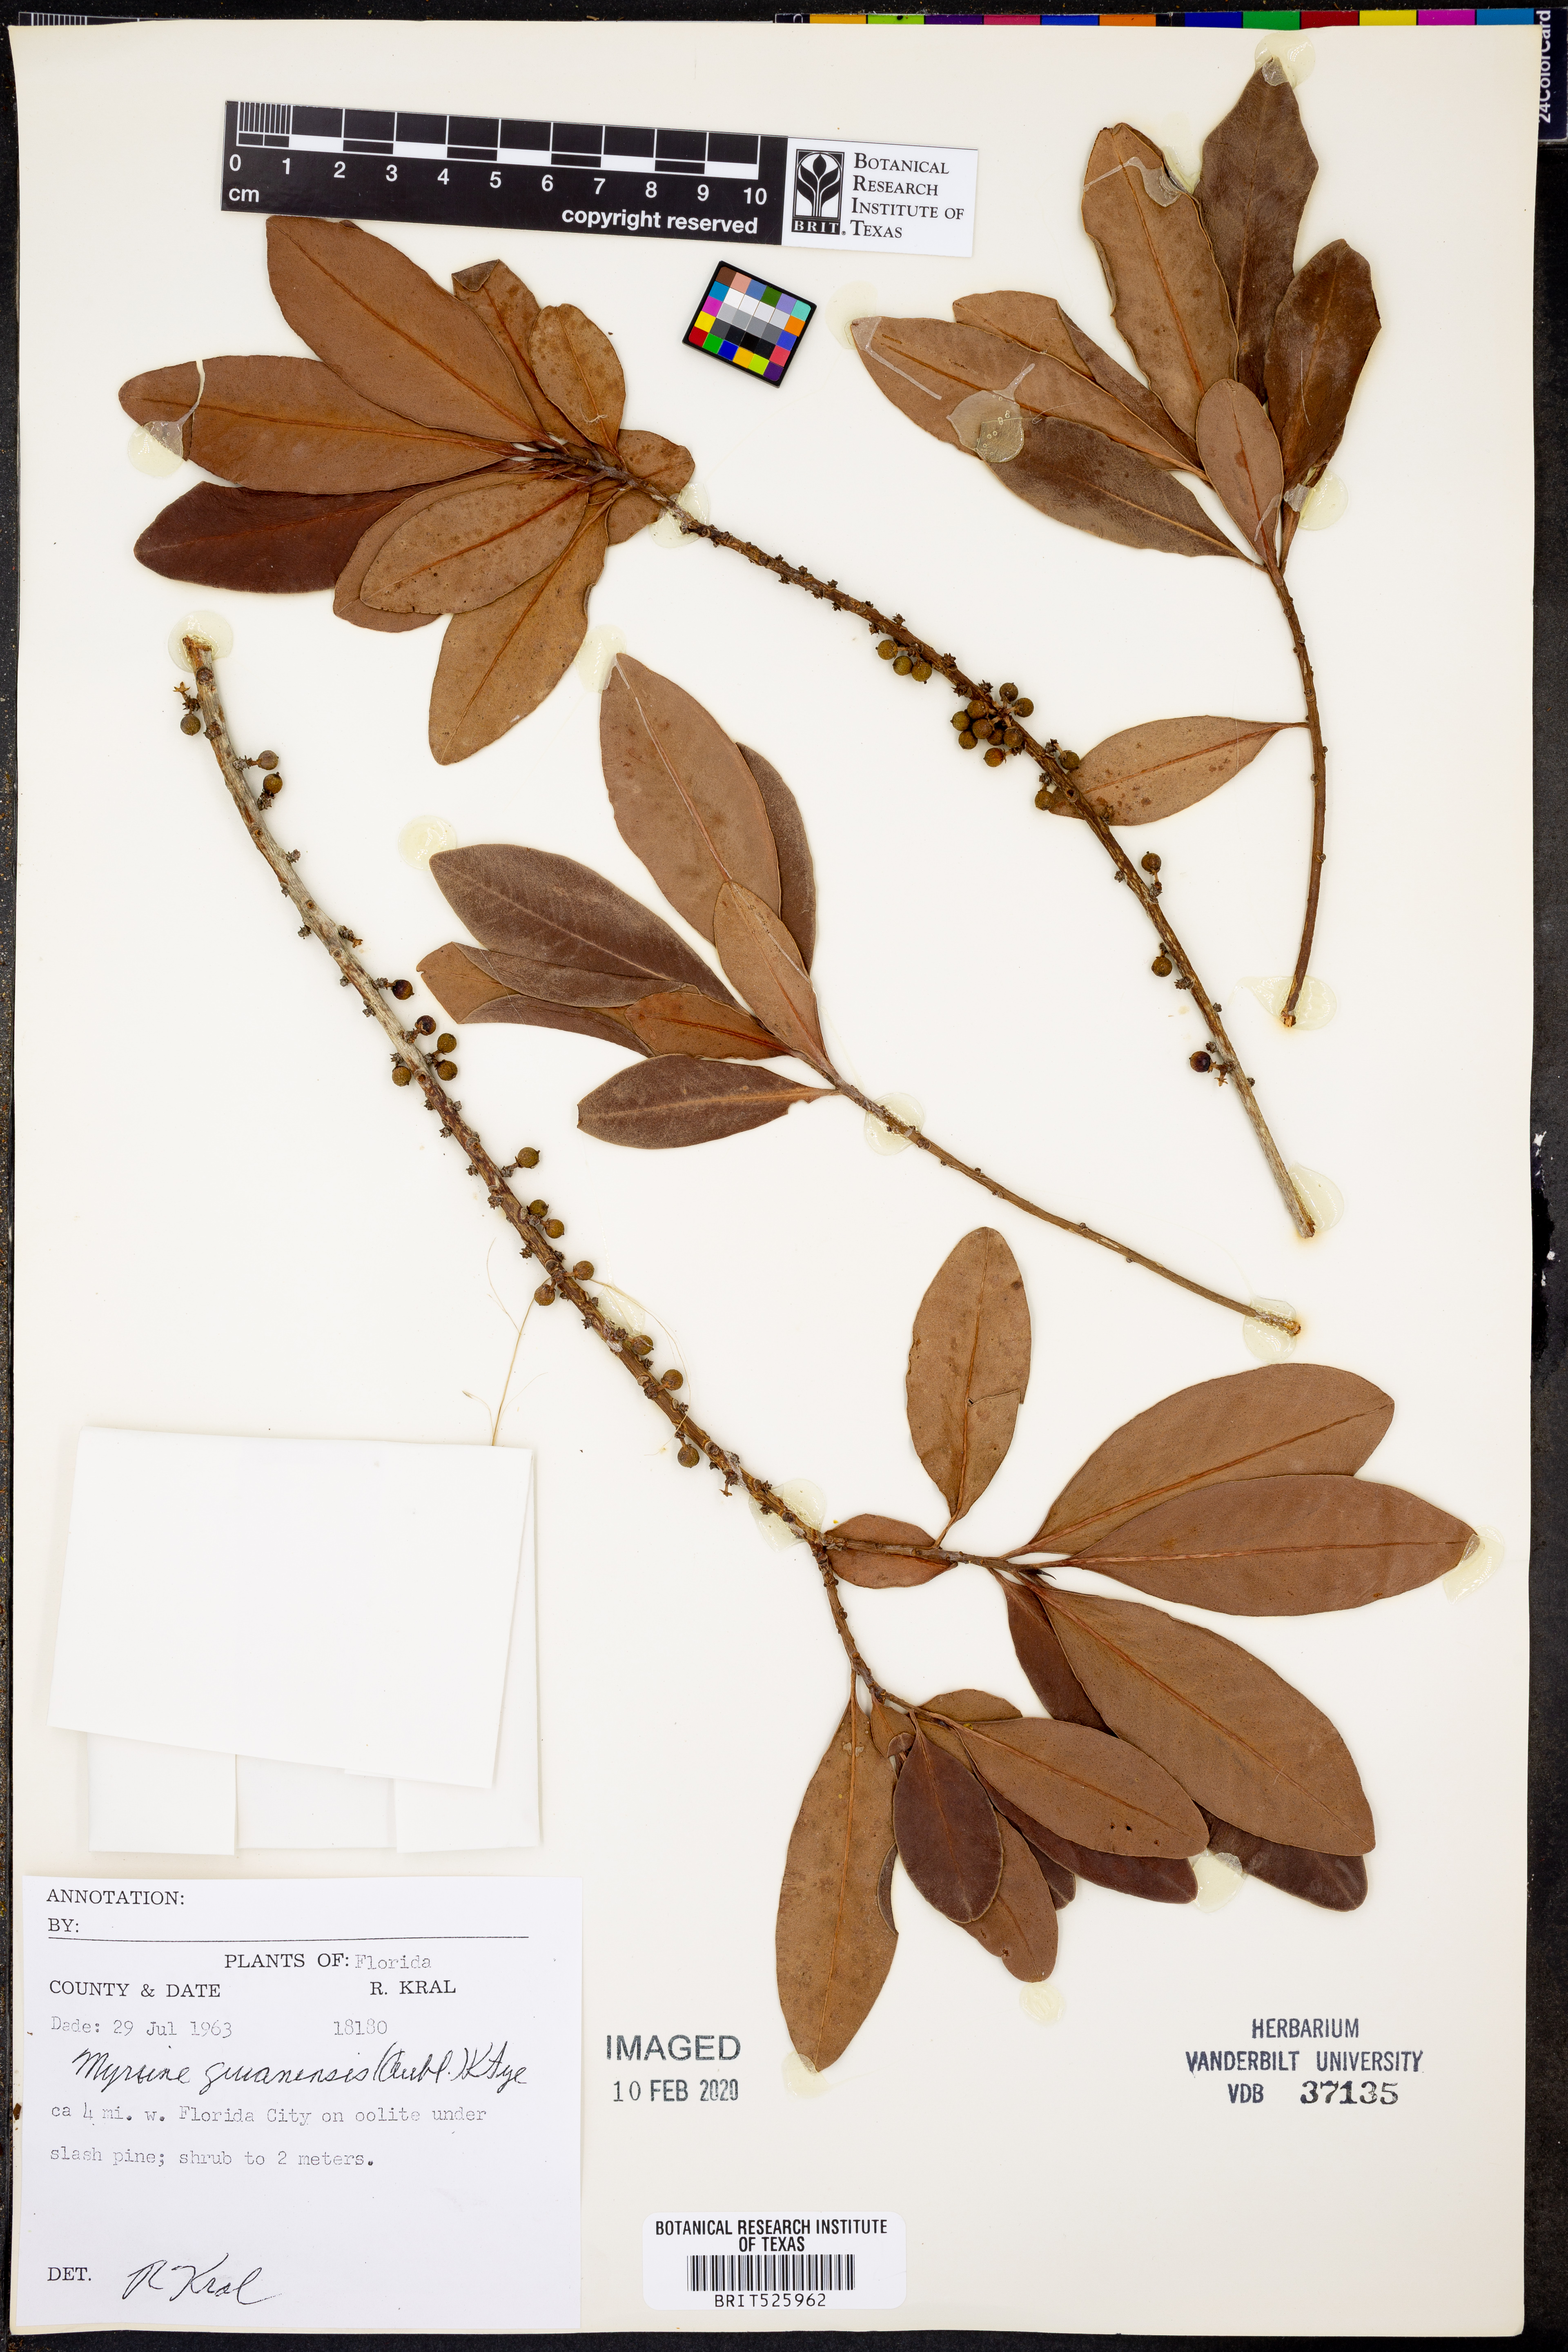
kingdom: Plantae
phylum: Tracheophyta
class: Magnoliopsida
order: Ericales
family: Primulaceae
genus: Myrsine
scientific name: Myrsine guianensis
